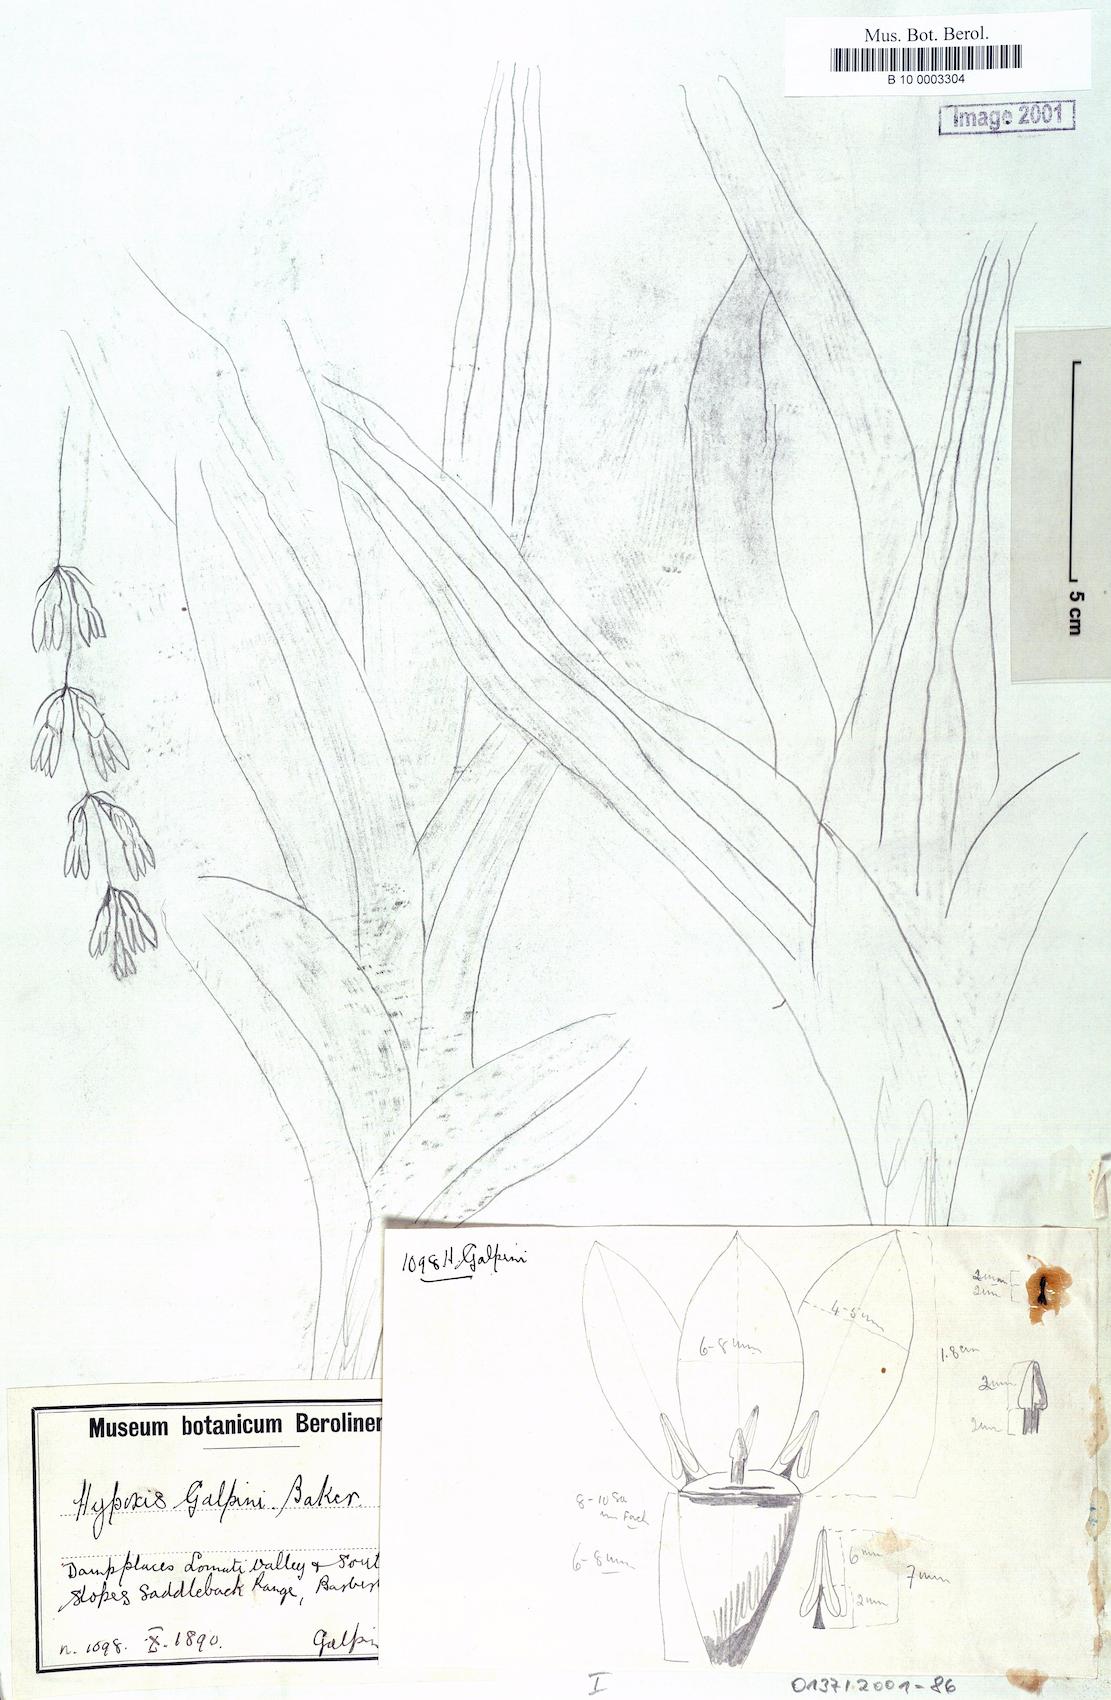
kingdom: Plantae
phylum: Tracheophyta
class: Liliopsida
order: Asparagales
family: Hypoxidaceae
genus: Hypoxis
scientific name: Hypoxis galpinii
